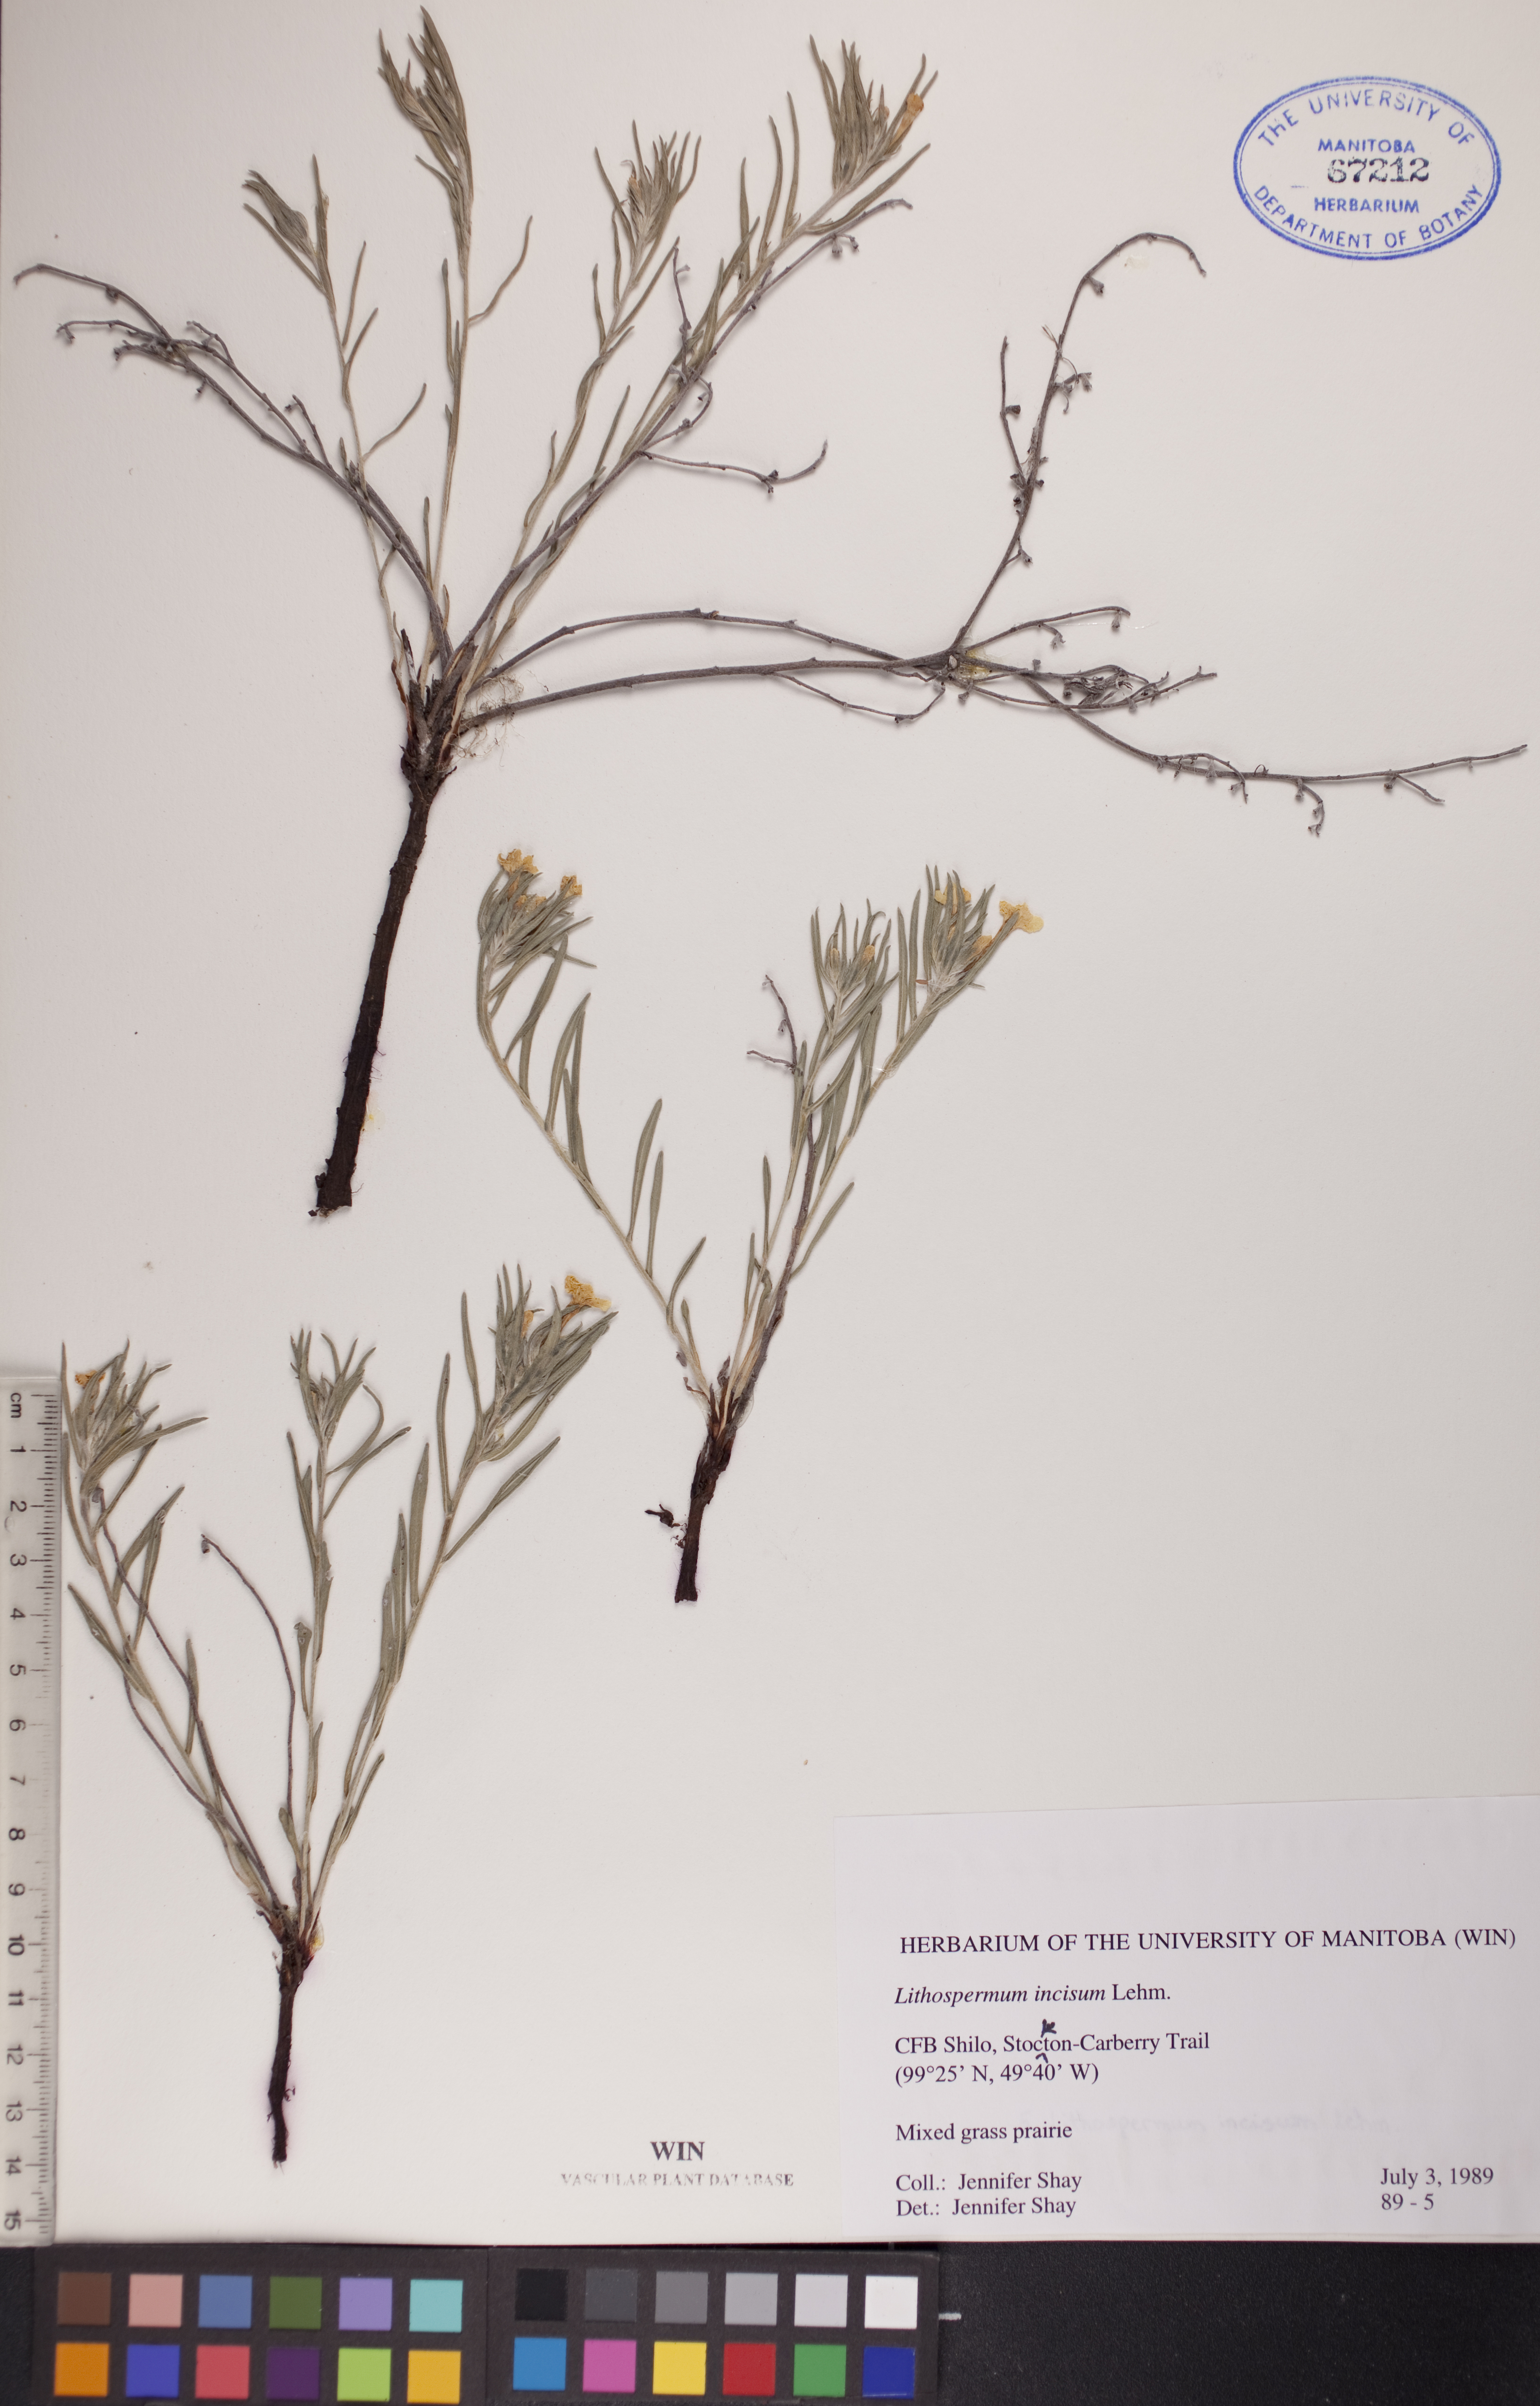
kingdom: Plantae
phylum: Tracheophyta
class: Magnoliopsida
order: Boraginales
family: Boraginaceae
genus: Lithospermum
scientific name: Lithospermum incisum
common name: Fringed gromwell
